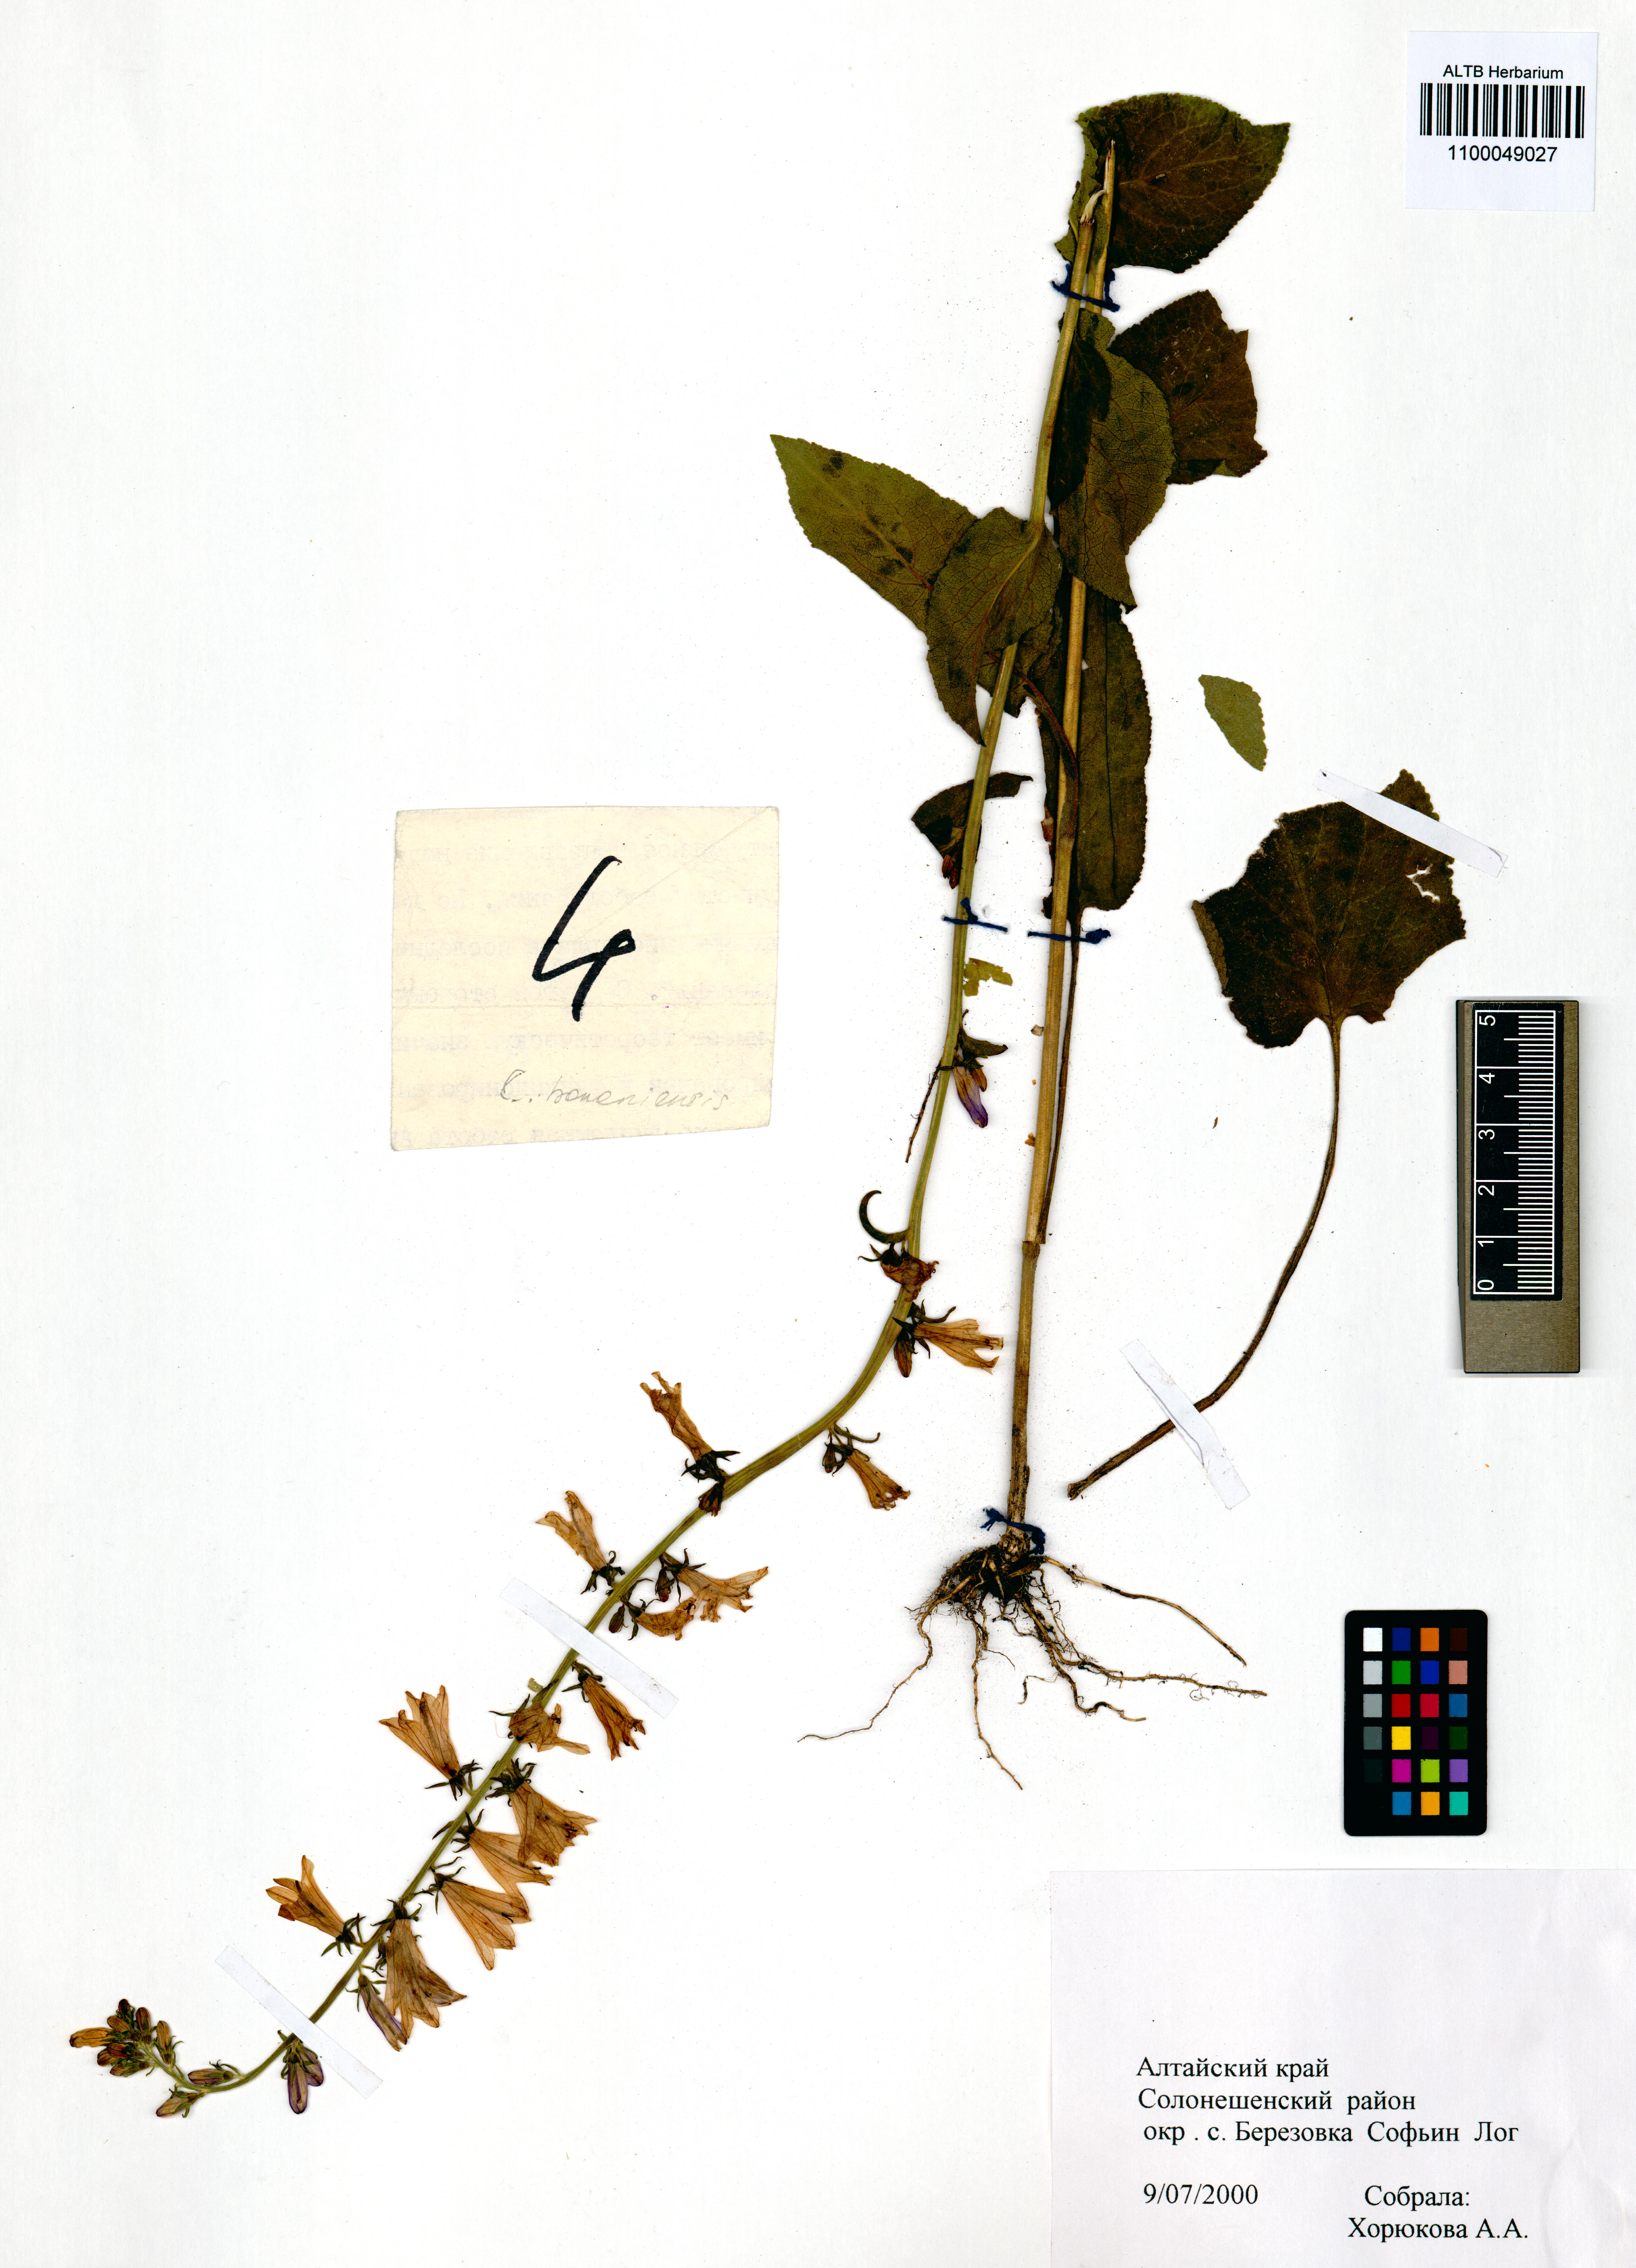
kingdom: Plantae
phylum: Tracheophyta
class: Magnoliopsida
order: Asterales
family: Campanulaceae
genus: Campanula
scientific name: Campanula bononiensis
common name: Pale bellflower
